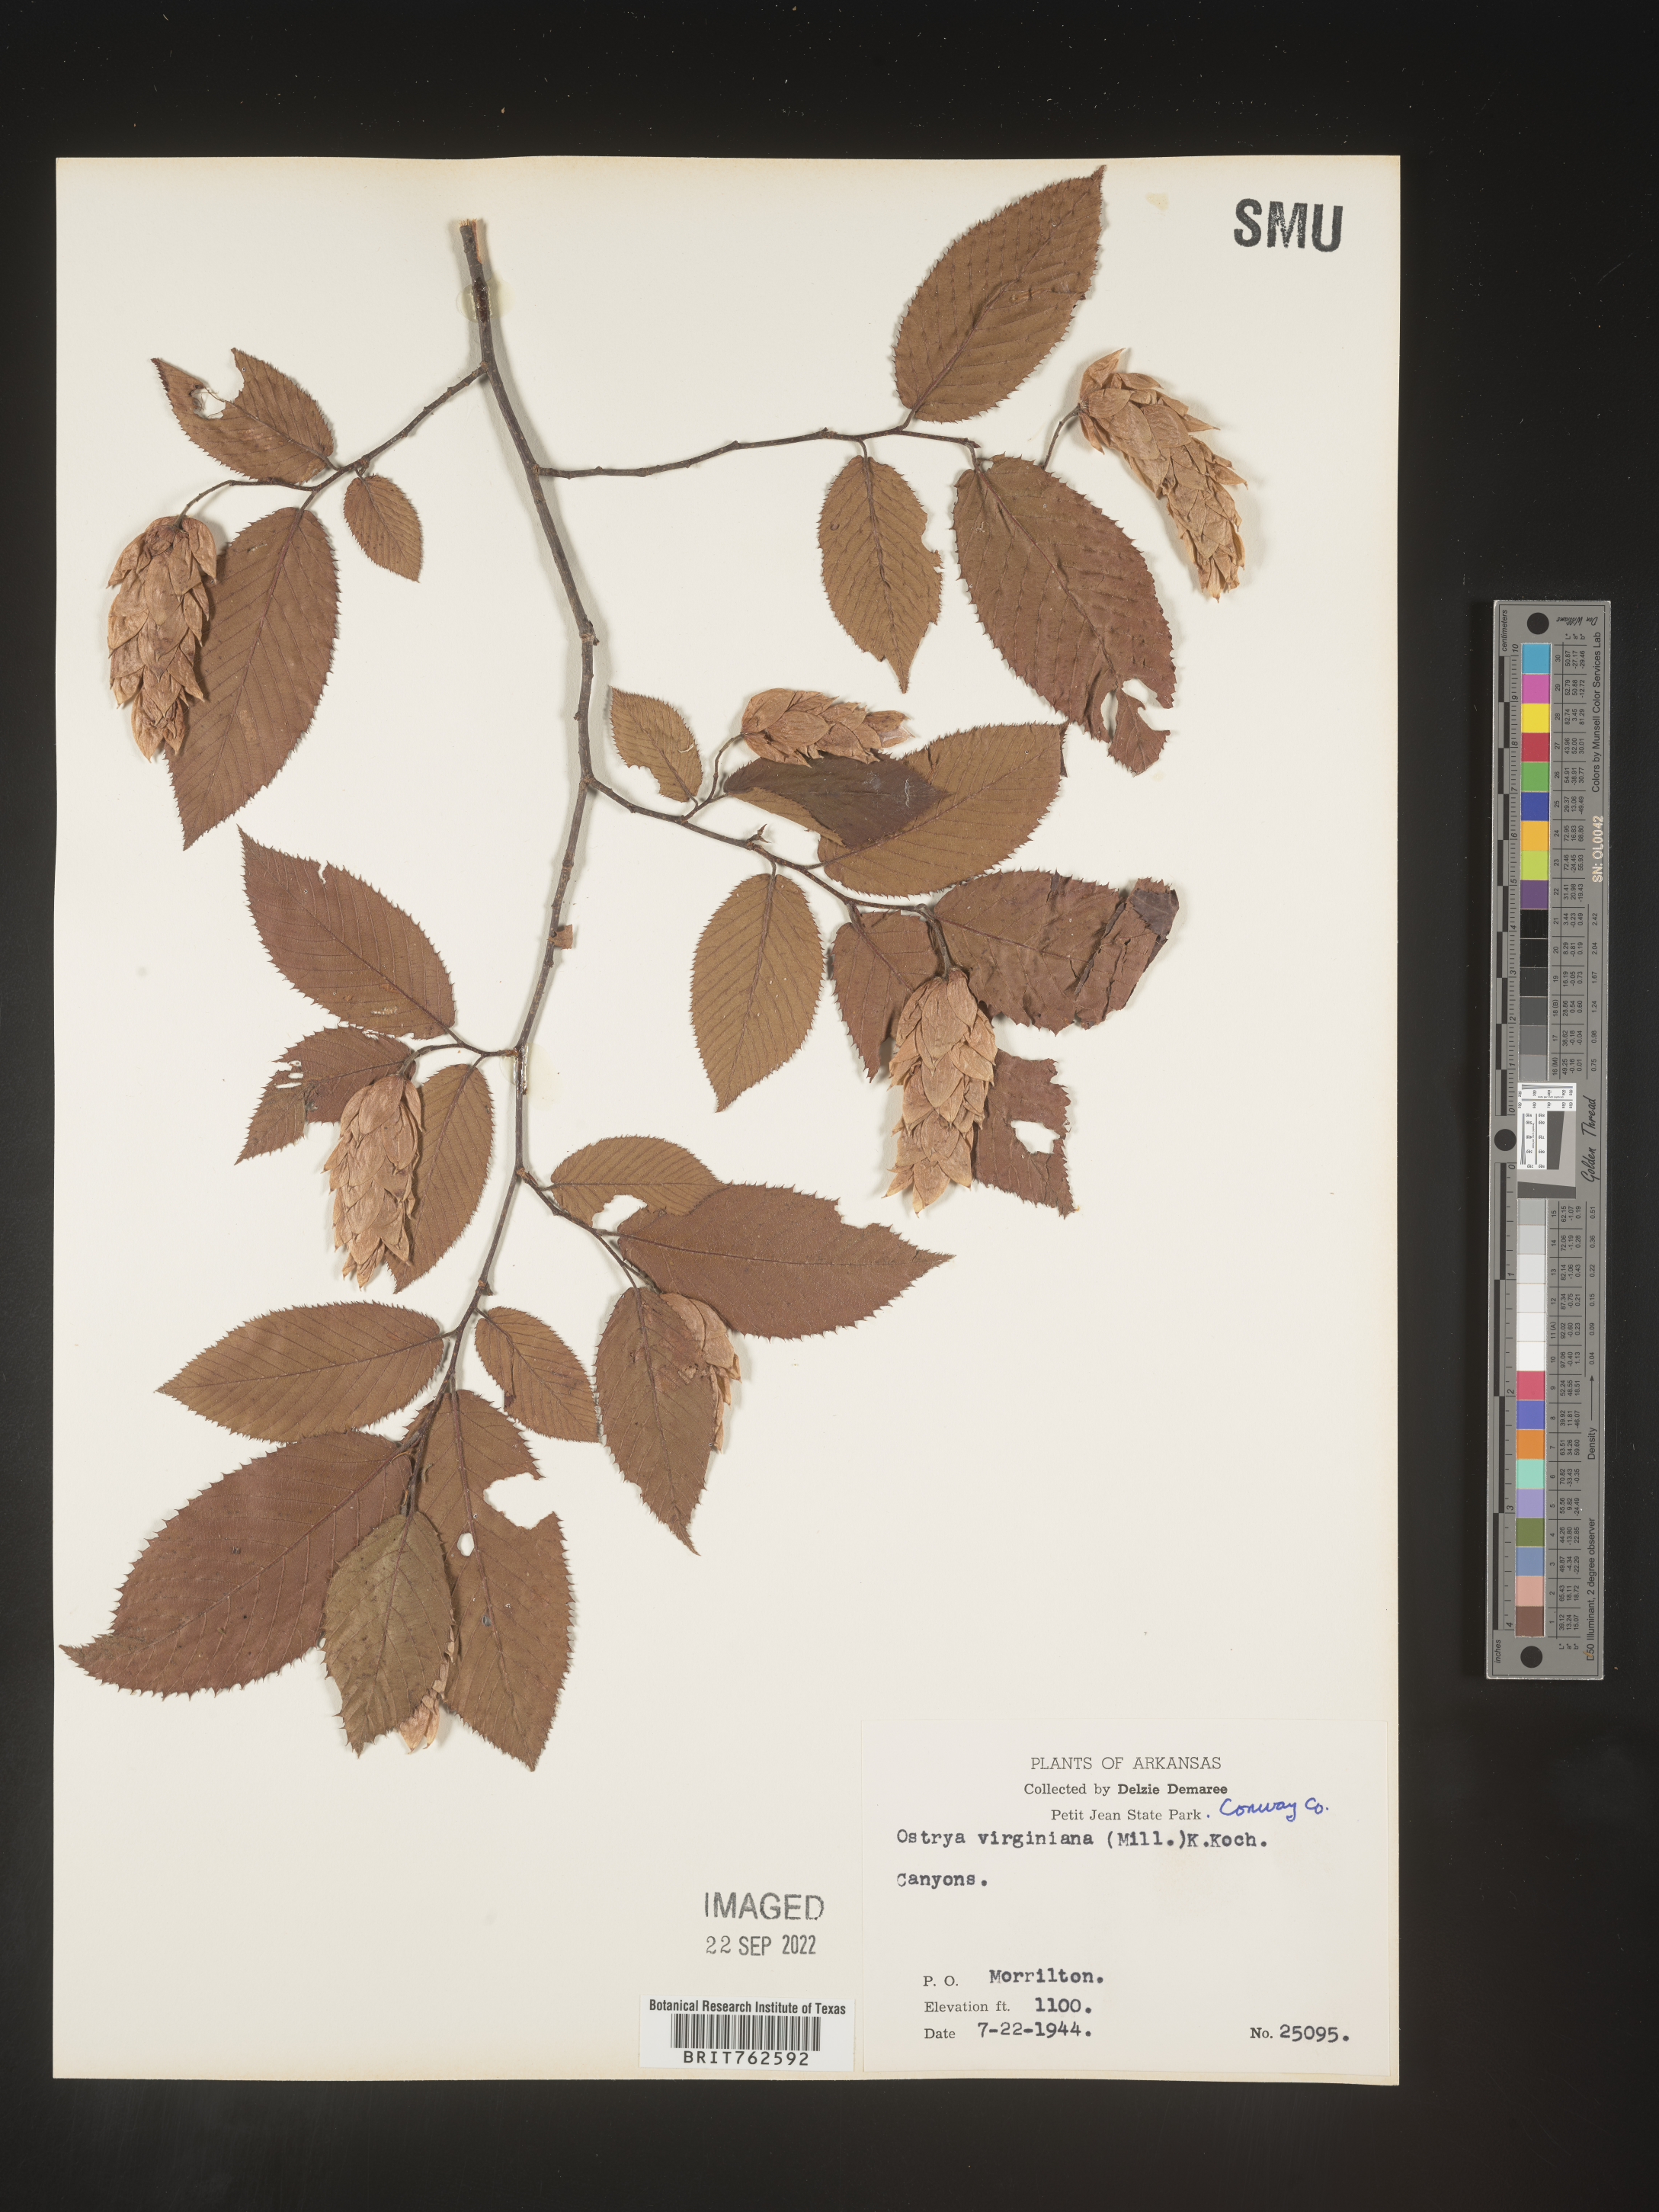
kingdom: Plantae
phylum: Tracheophyta
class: Magnoliopsida
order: Fagales
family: Betulaceae
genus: Ostrya
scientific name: Ostrya virginiana
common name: Ironwood
